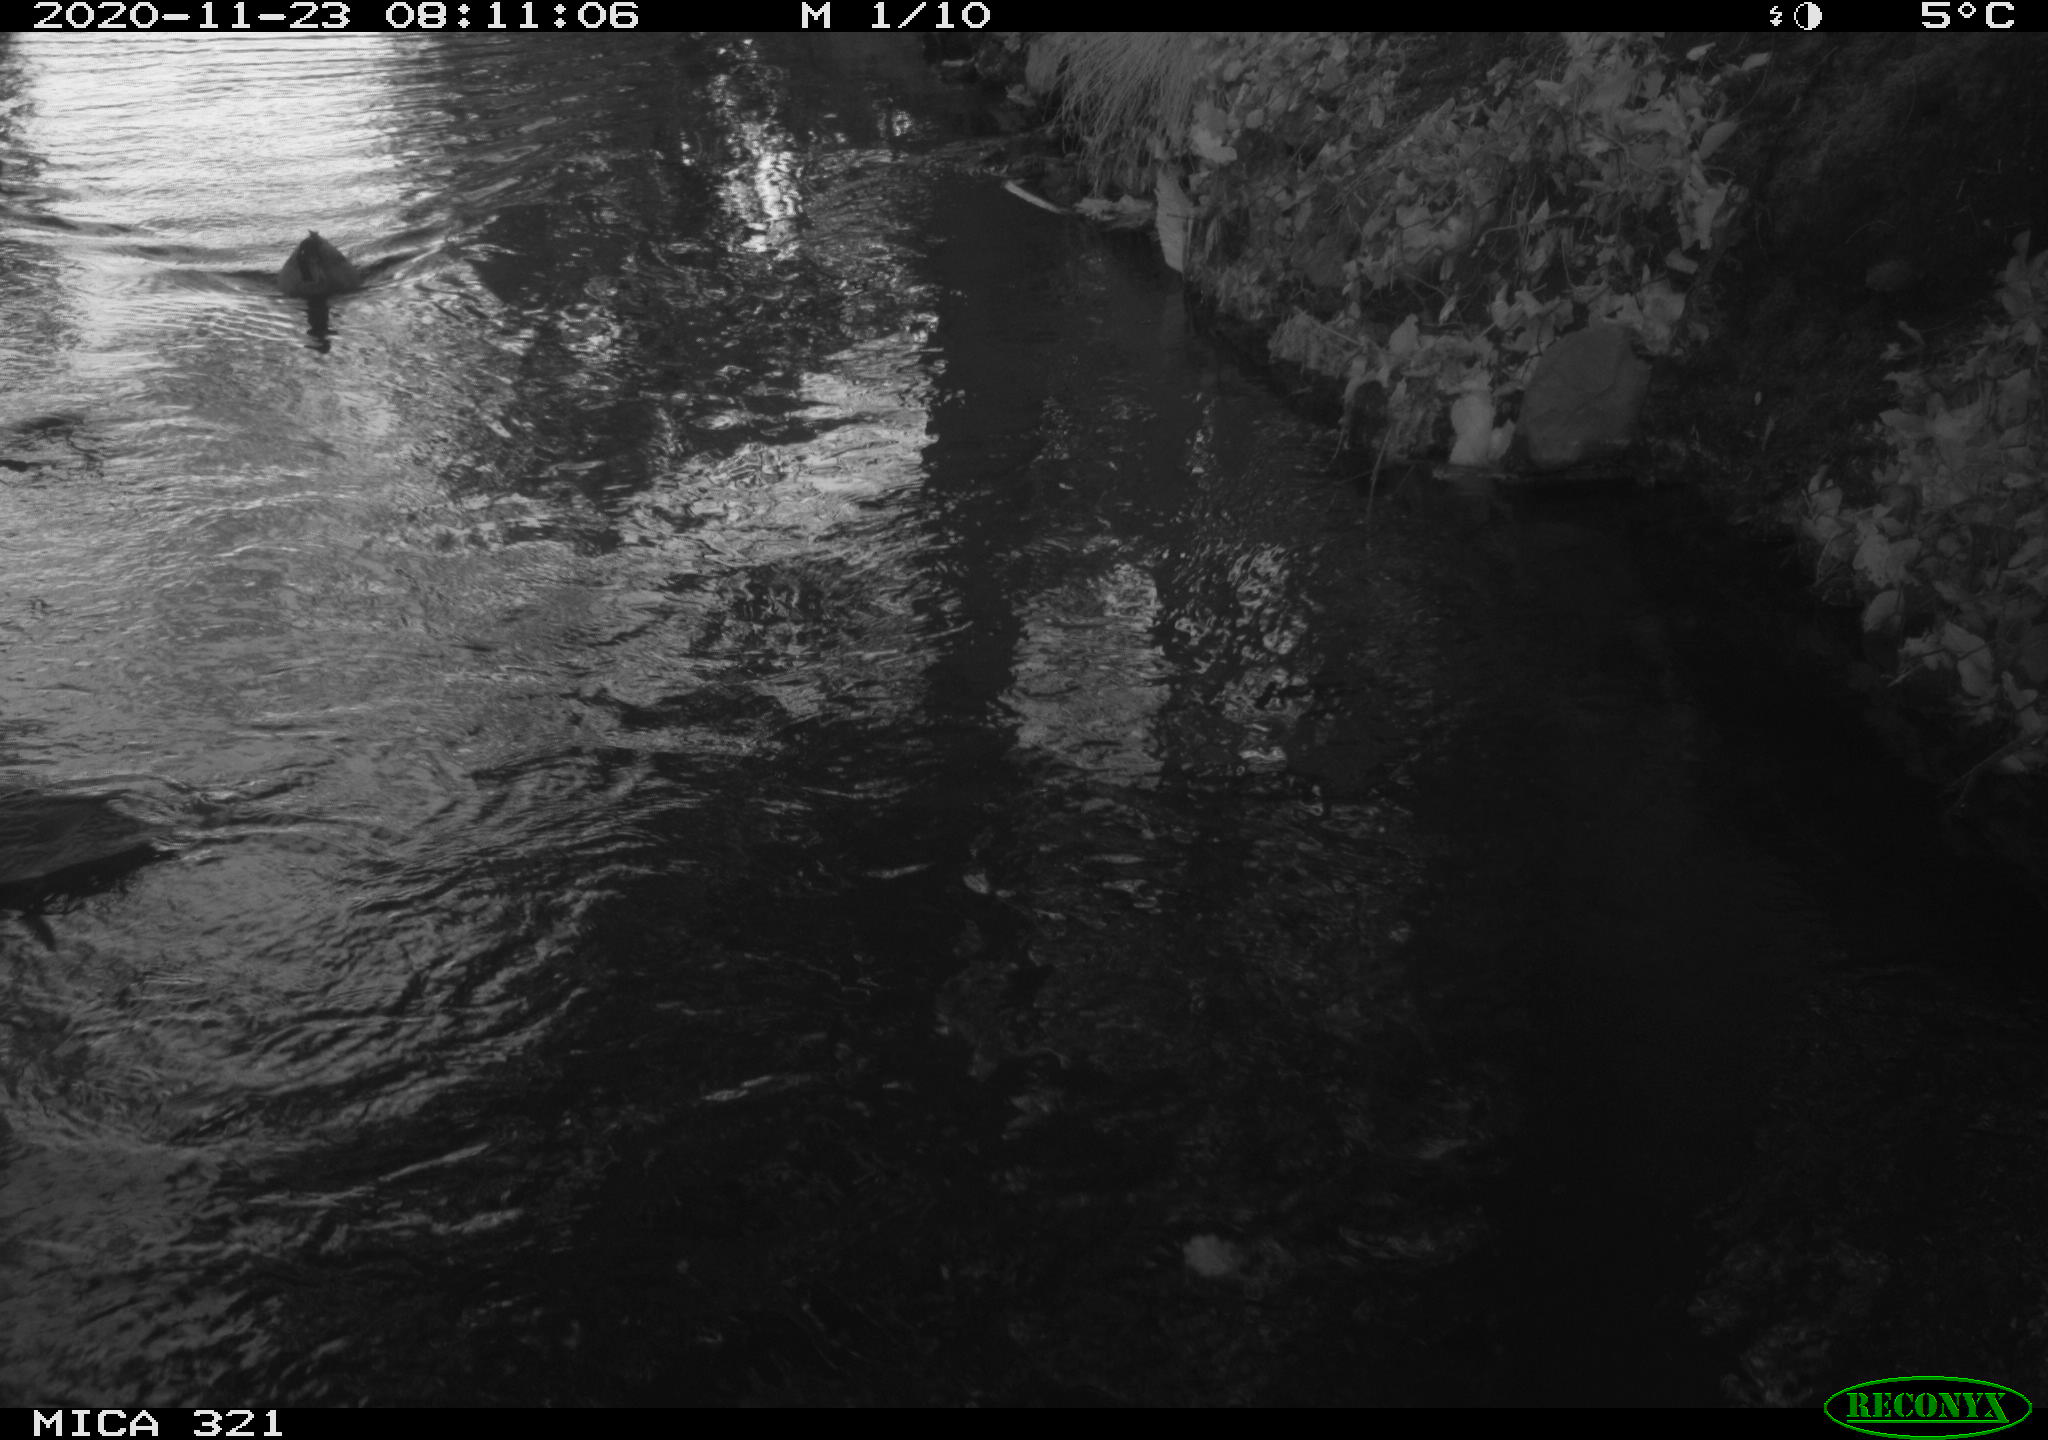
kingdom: Animalia
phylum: Chordata
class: Aves
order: Gruiformes
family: Rallidae
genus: Gallinula
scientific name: Gallinula chloropus
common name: Common moorhen
